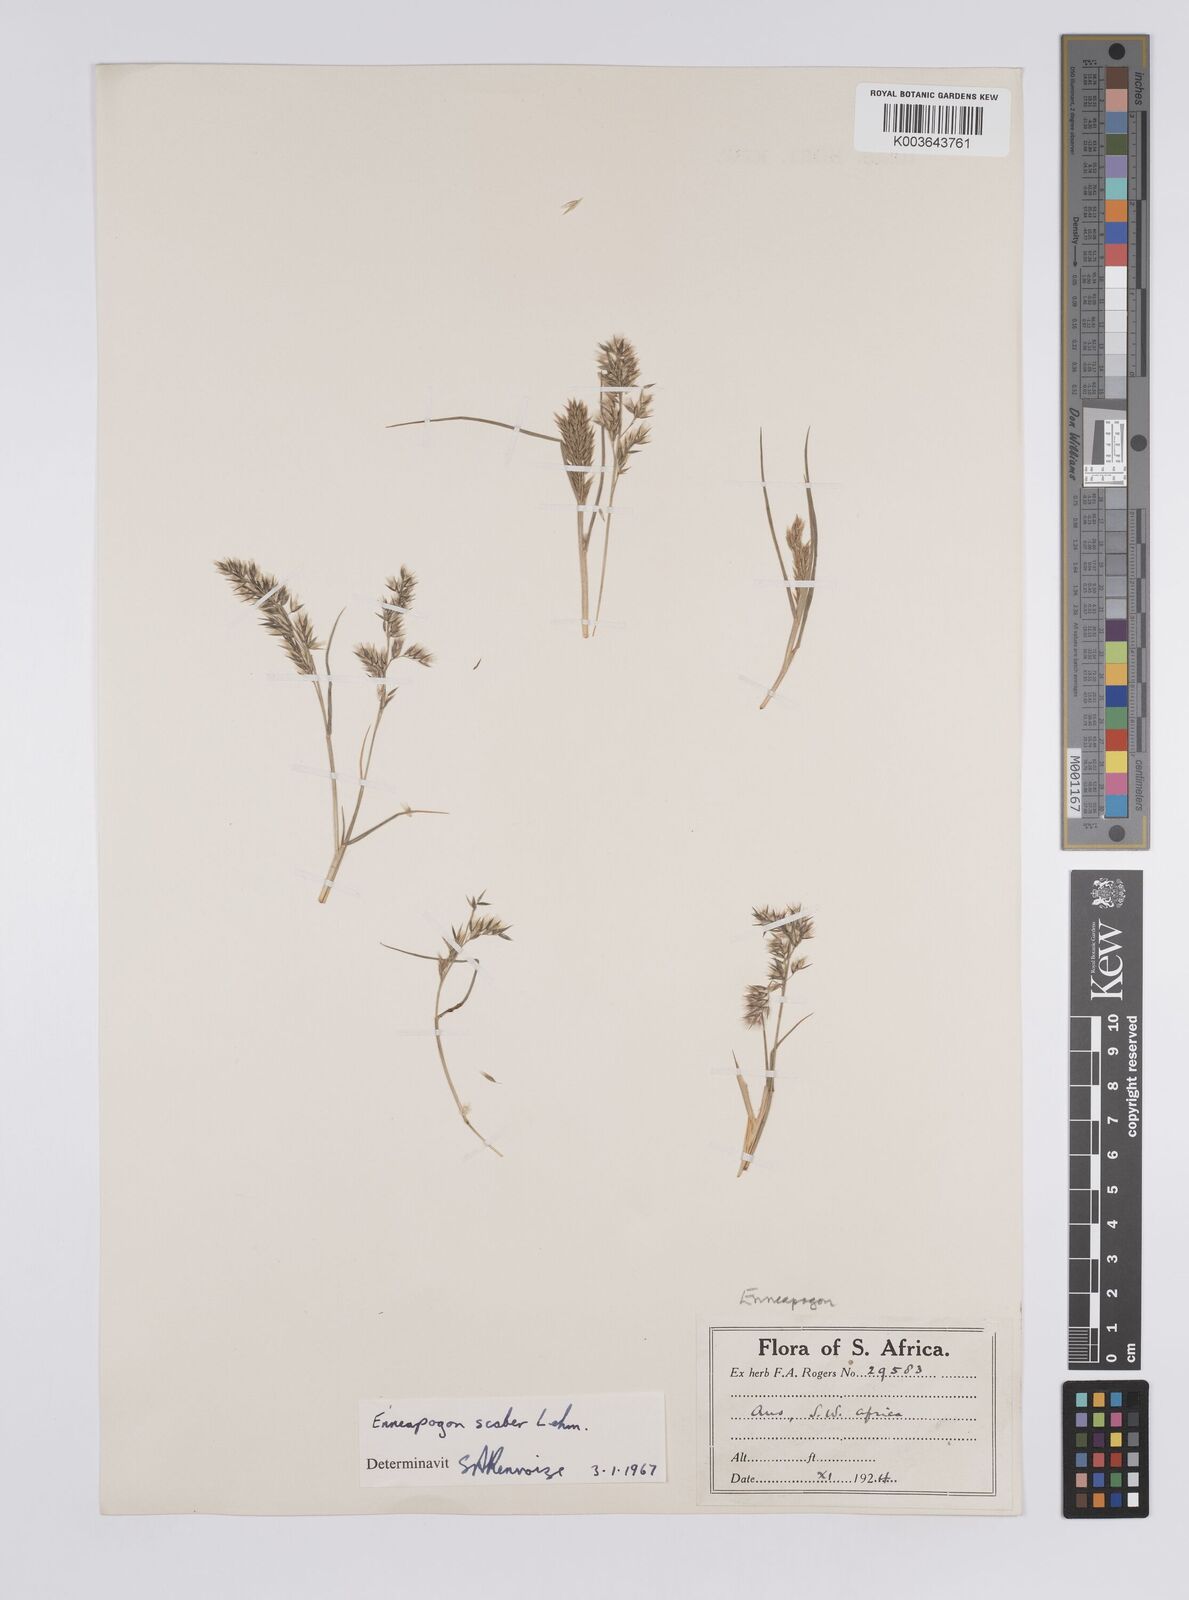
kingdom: Plantae
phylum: Tracheophyta
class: Liliopsida
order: Poales
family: Poaceae
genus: Enneapogon
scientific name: Enneapogon scaber
